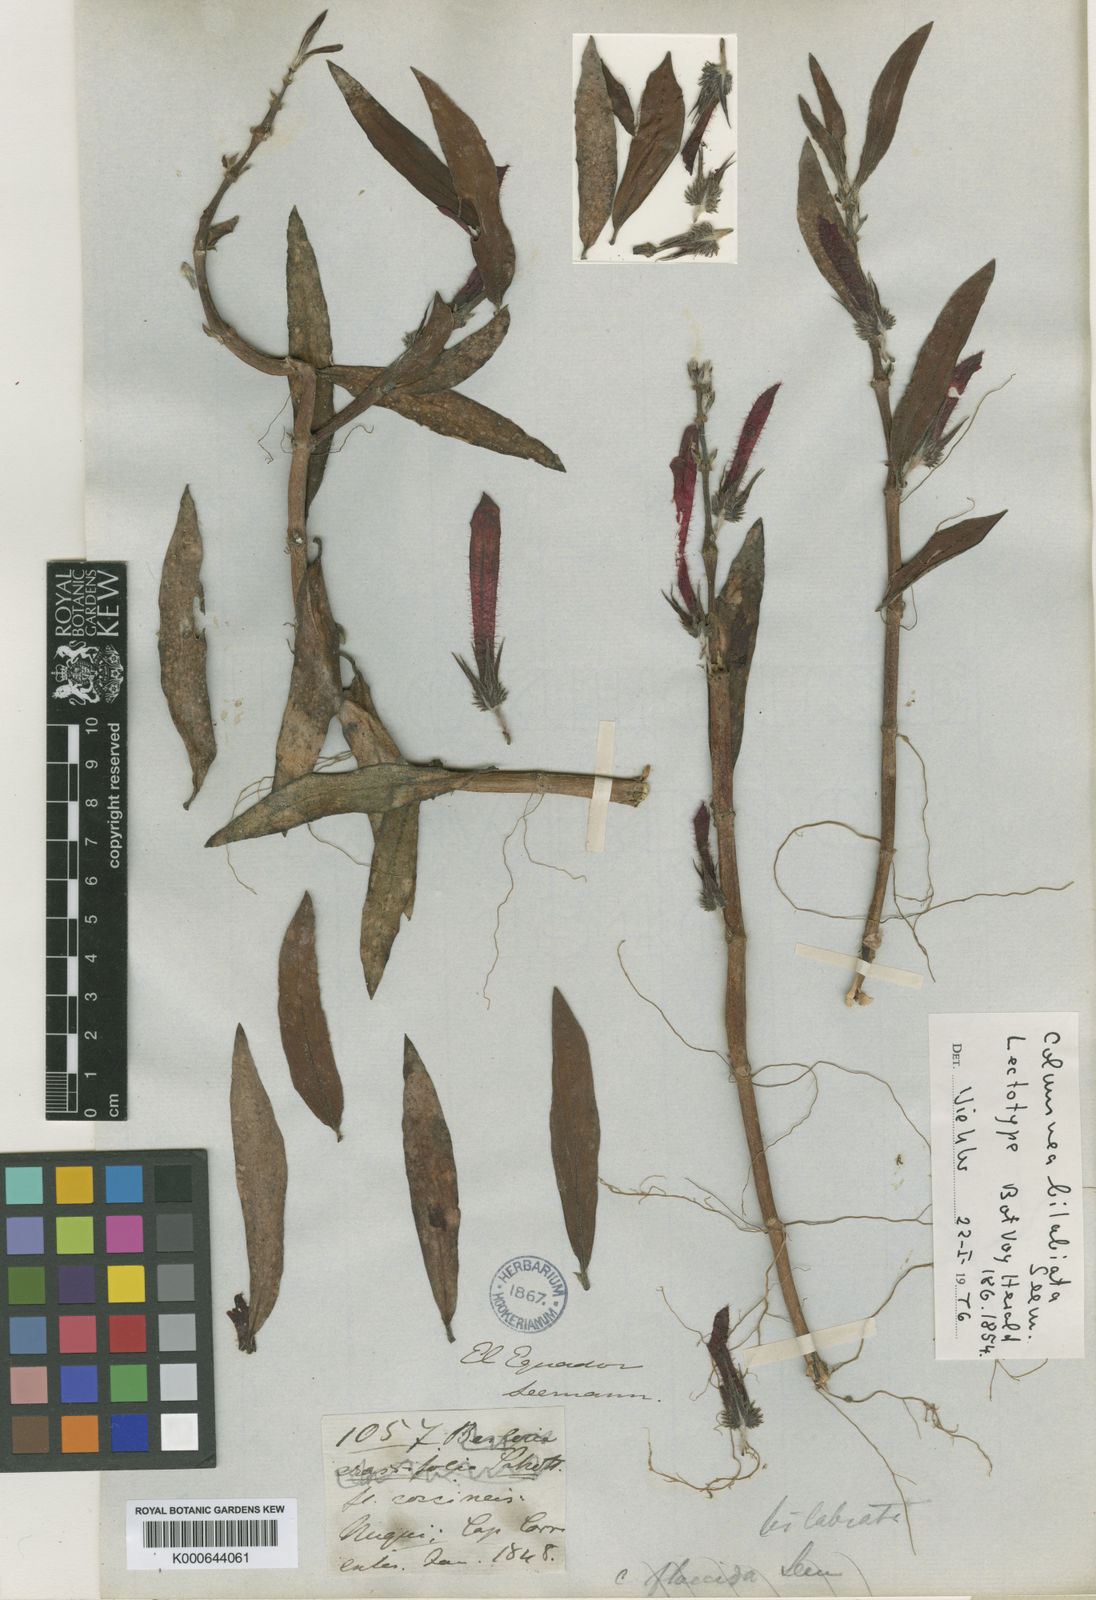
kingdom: Plantae
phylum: Tracheophyta
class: Magnoliopsida
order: Lamiales
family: Gesneriaceae
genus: Columnea
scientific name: Columnea bilabiata
